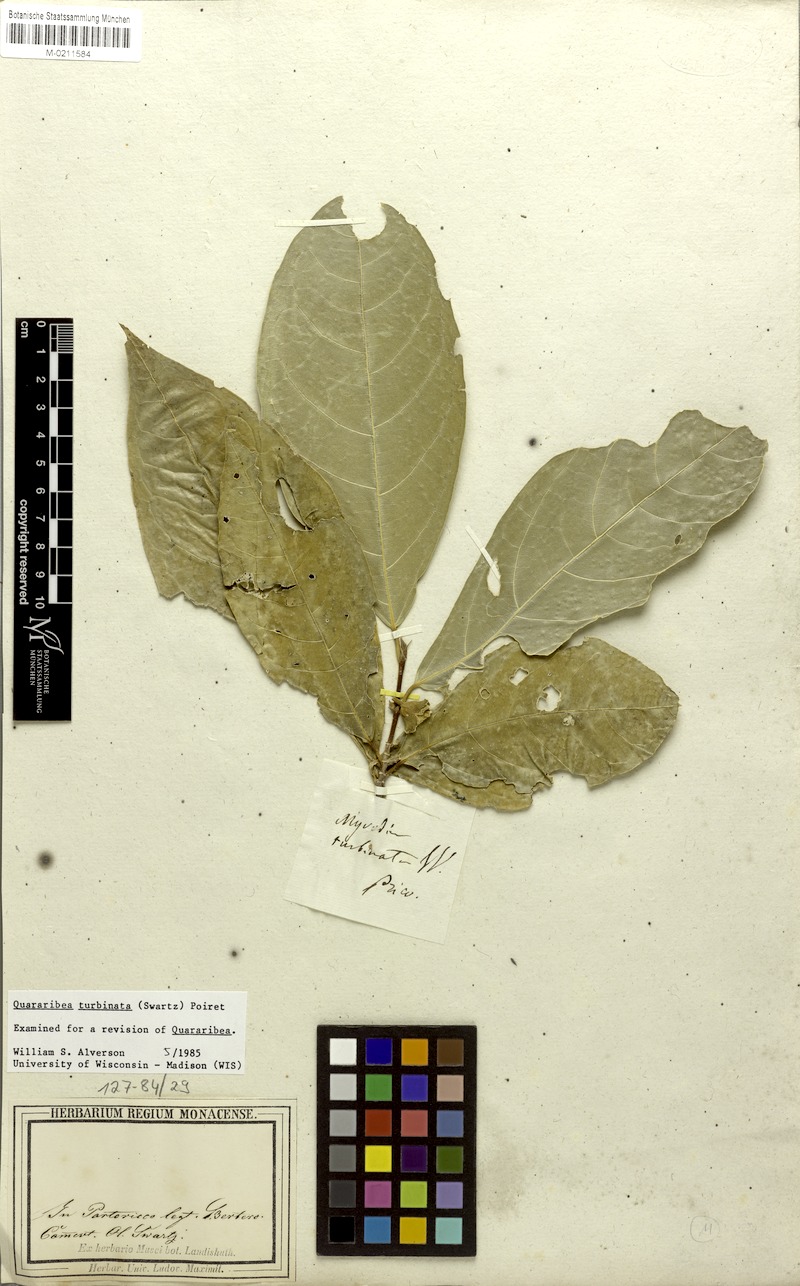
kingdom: Plantae
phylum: Tracheophyta
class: Magnoliopsida
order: Malvales
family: Malvaceae
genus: Quararibea
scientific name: Quararibea turbinata
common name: Swizzlestick-tree
